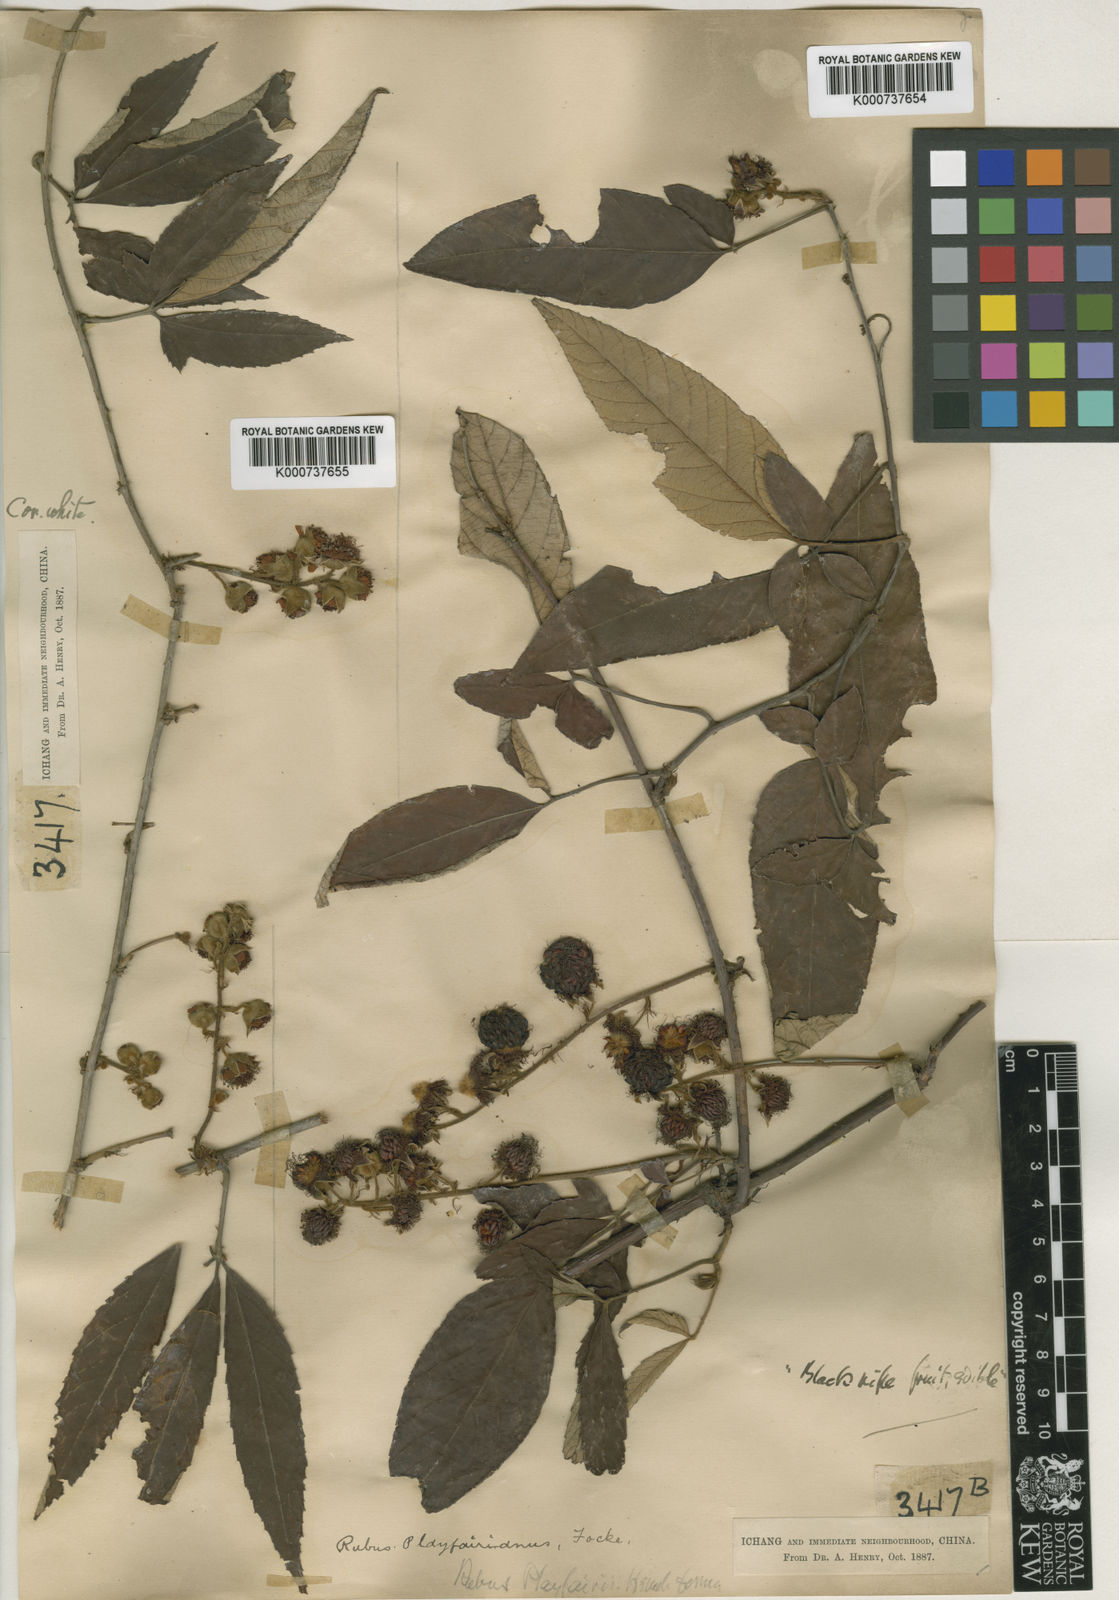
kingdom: Plantae
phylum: Tracheophyta
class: Magnoliopsida
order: Rosales
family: Rosaceae
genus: Rubus
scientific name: Rubus playfairianus
